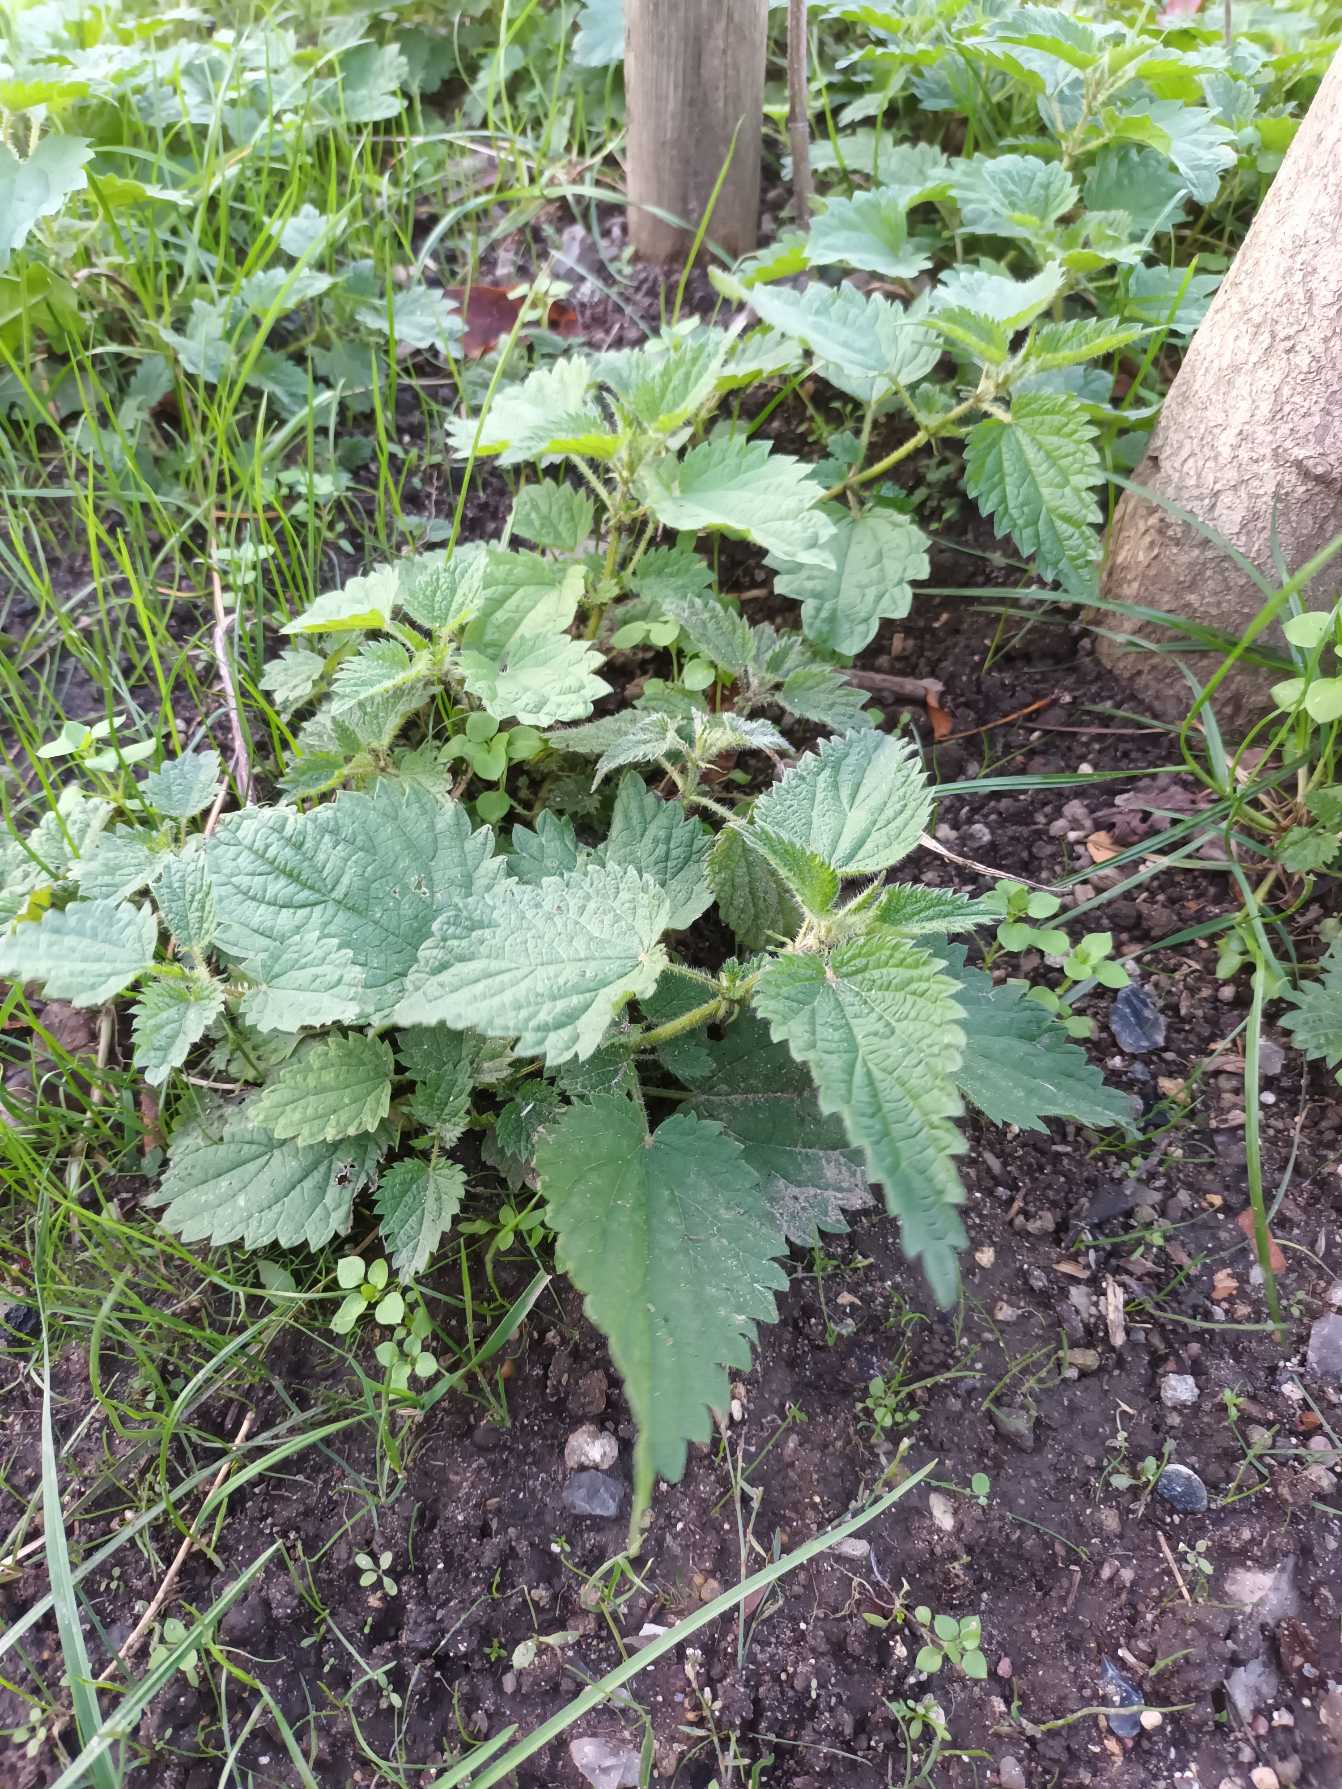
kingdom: Plantae
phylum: Tracheophyta
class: Magnoliopsida
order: Rosales
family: Urticaceae
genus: Urtica
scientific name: Urtica dioica
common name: Stor nælde
